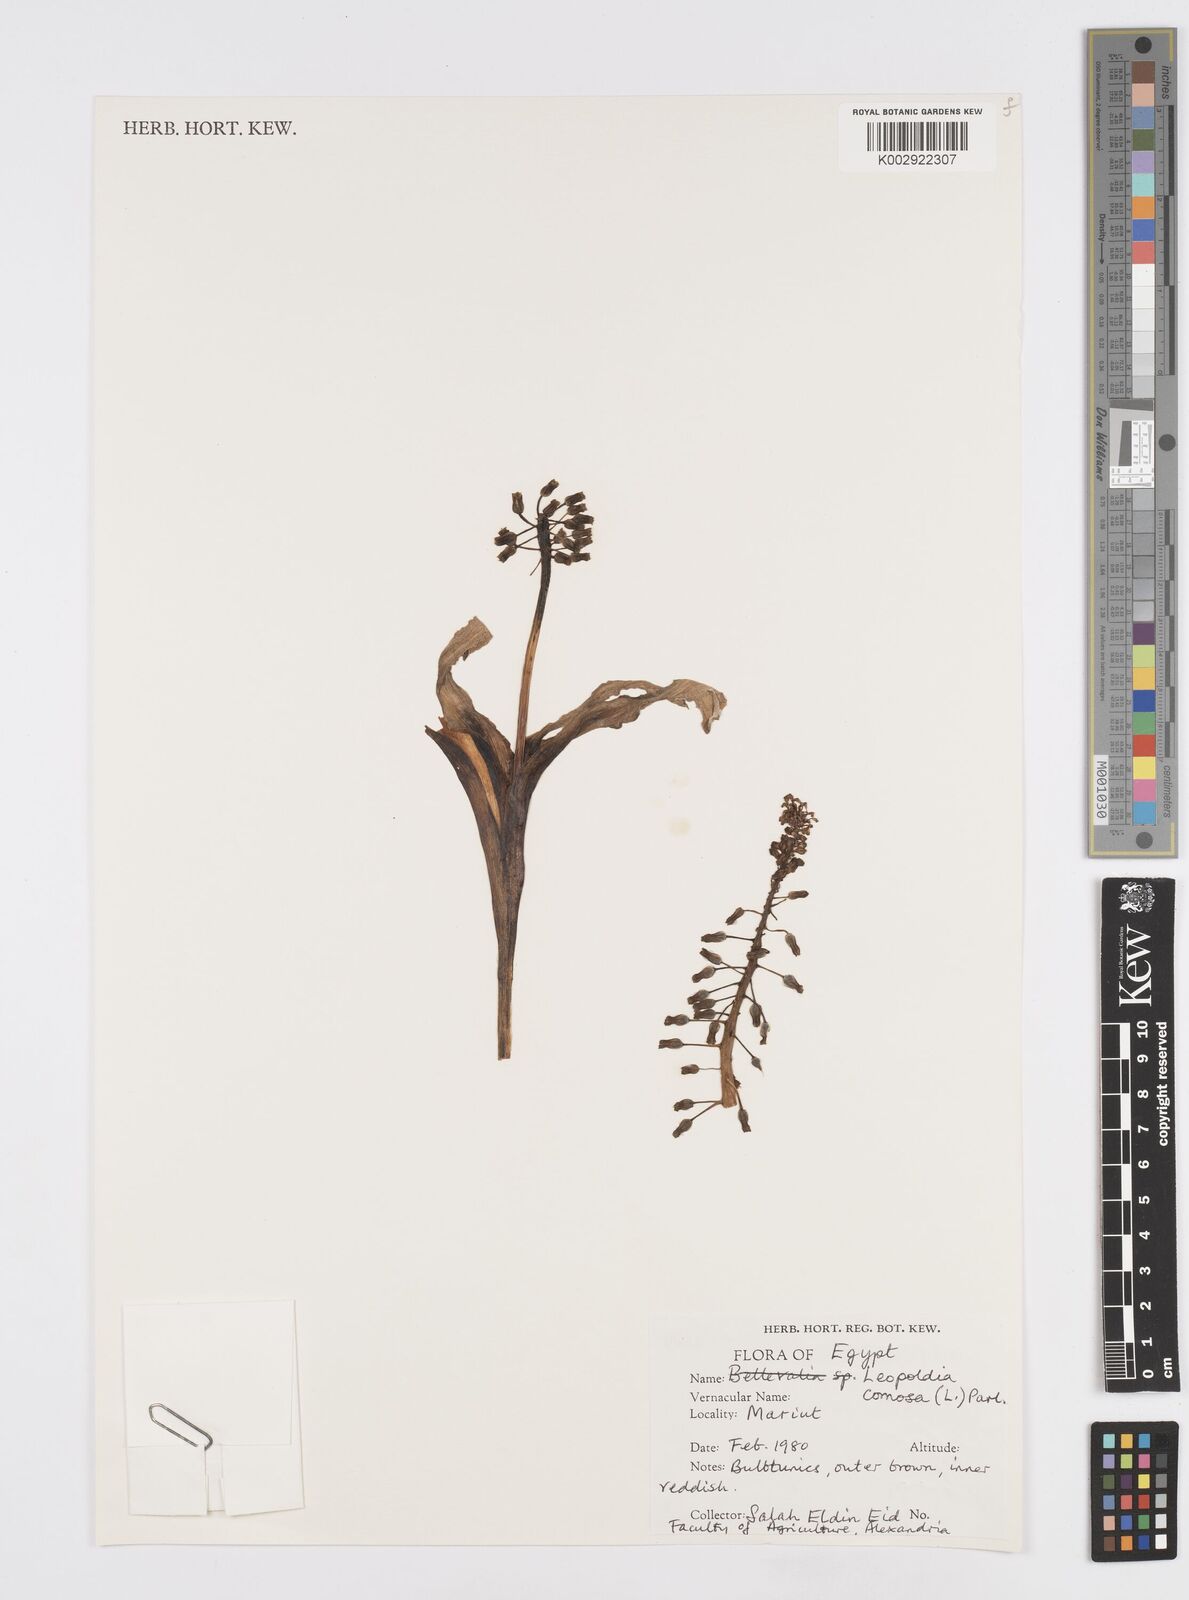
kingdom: Plantae
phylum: Tracheophyta
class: Liliopsida
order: Asparagales
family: Asparagaceae
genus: Muscari
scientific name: Muscari comosum
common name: Tassel hyacinth
